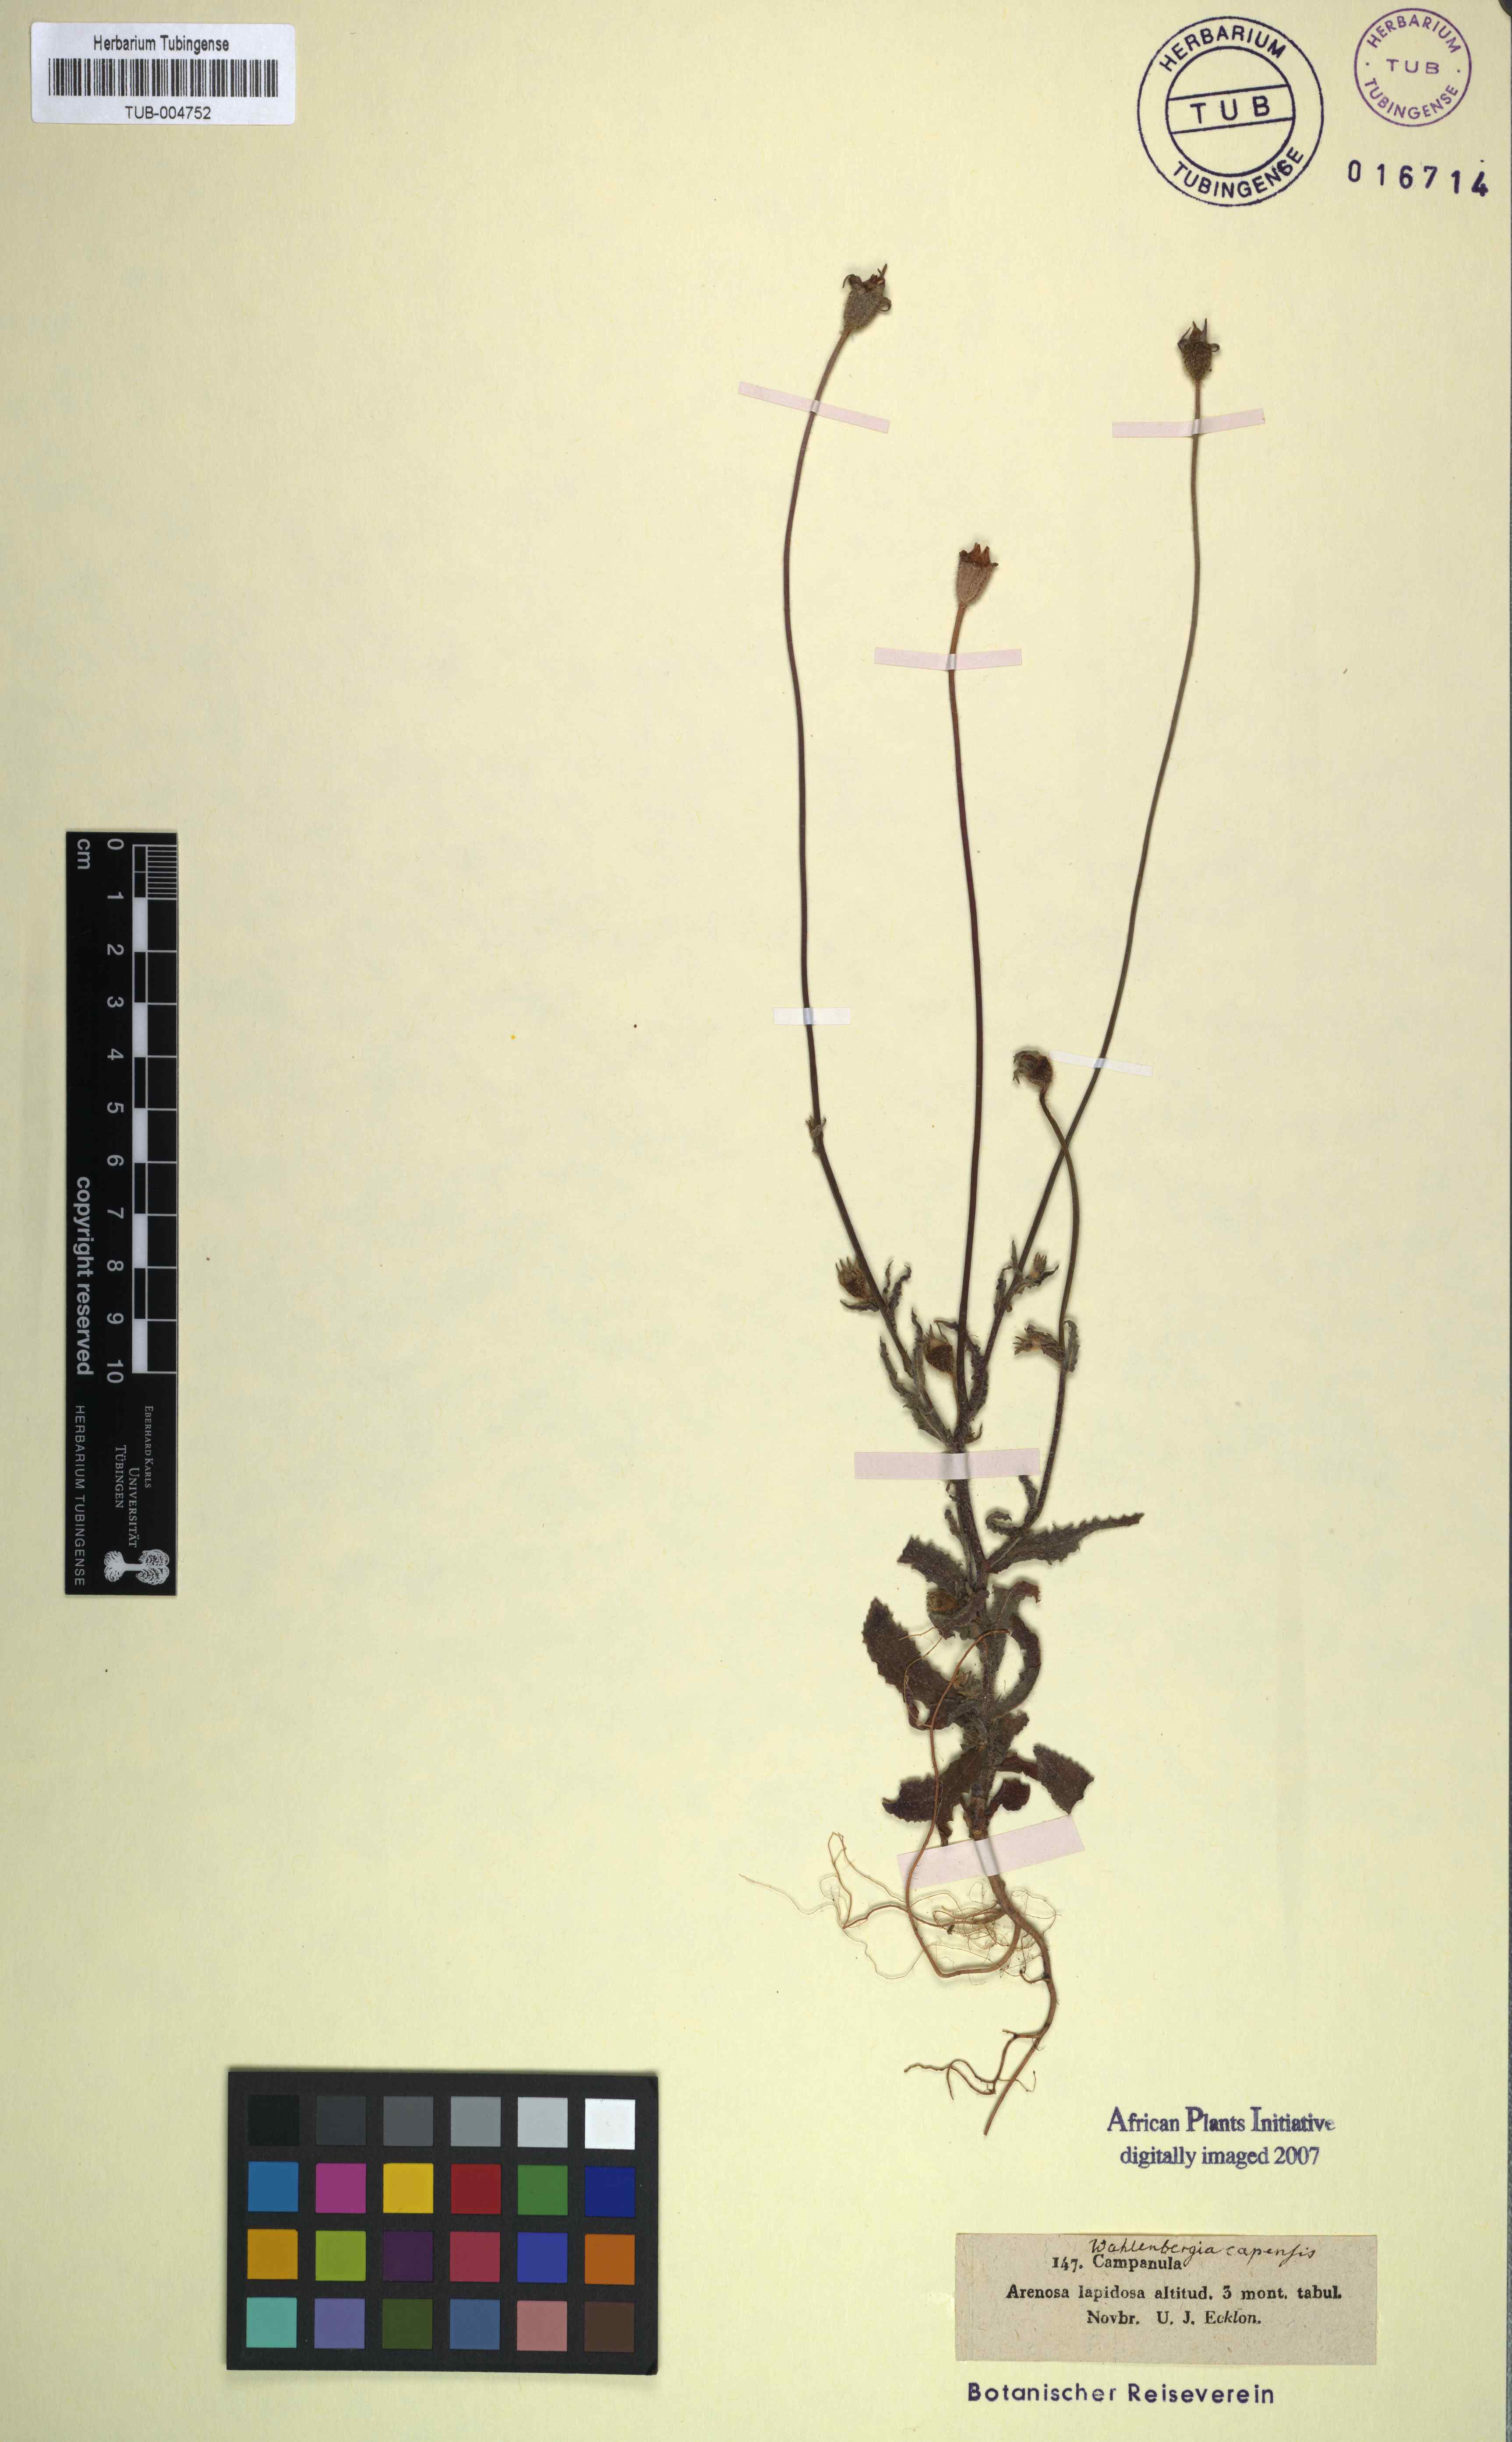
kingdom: Plantae
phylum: Tracheophyta
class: Magnoliopsida
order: Asterales
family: Campanulaceae
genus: Wahlenbergia
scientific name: Wahlenbergia capensis
